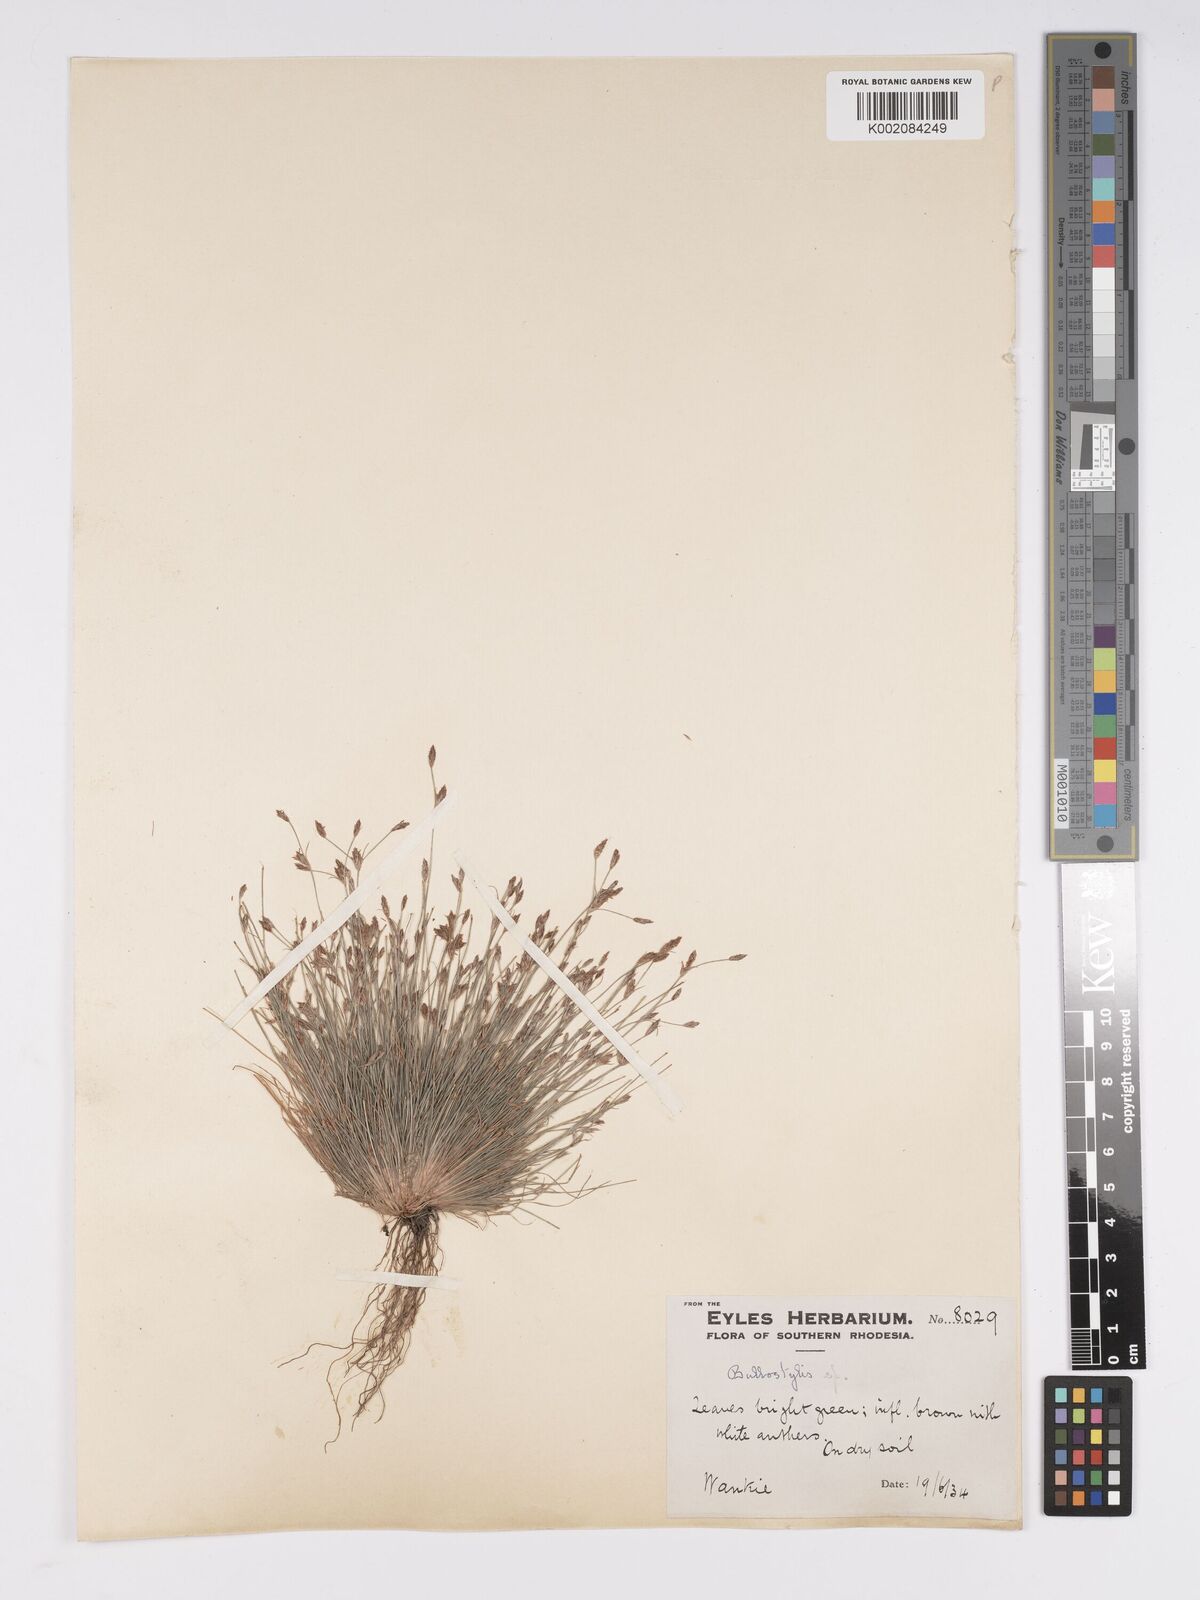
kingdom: Plantae
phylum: Tracheophyta
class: Liliopsida
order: Poales
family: Cyperaceae
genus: Bulbostylis
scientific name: Bulbostylis
